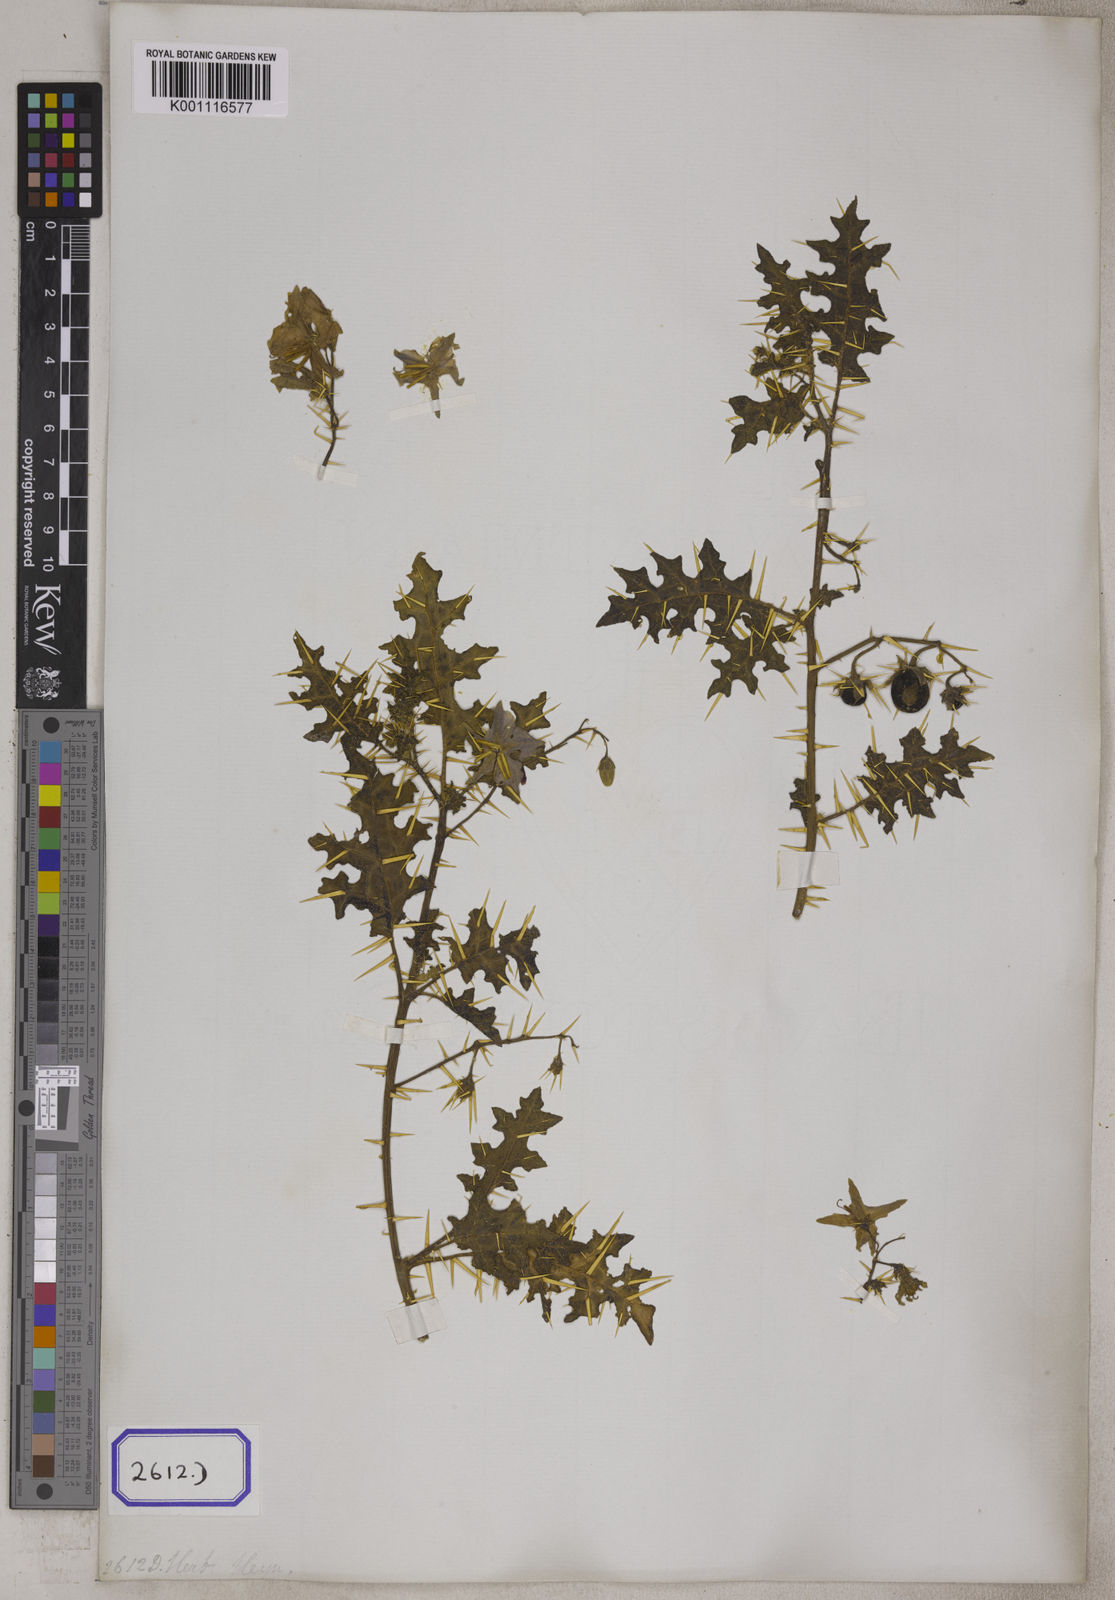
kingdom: Plantae
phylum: Tracheophyta
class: Magnoliopsida
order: Solanales
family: Solanaceae
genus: Solanum
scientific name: Solanum virginianum
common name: Surattense nightshade
